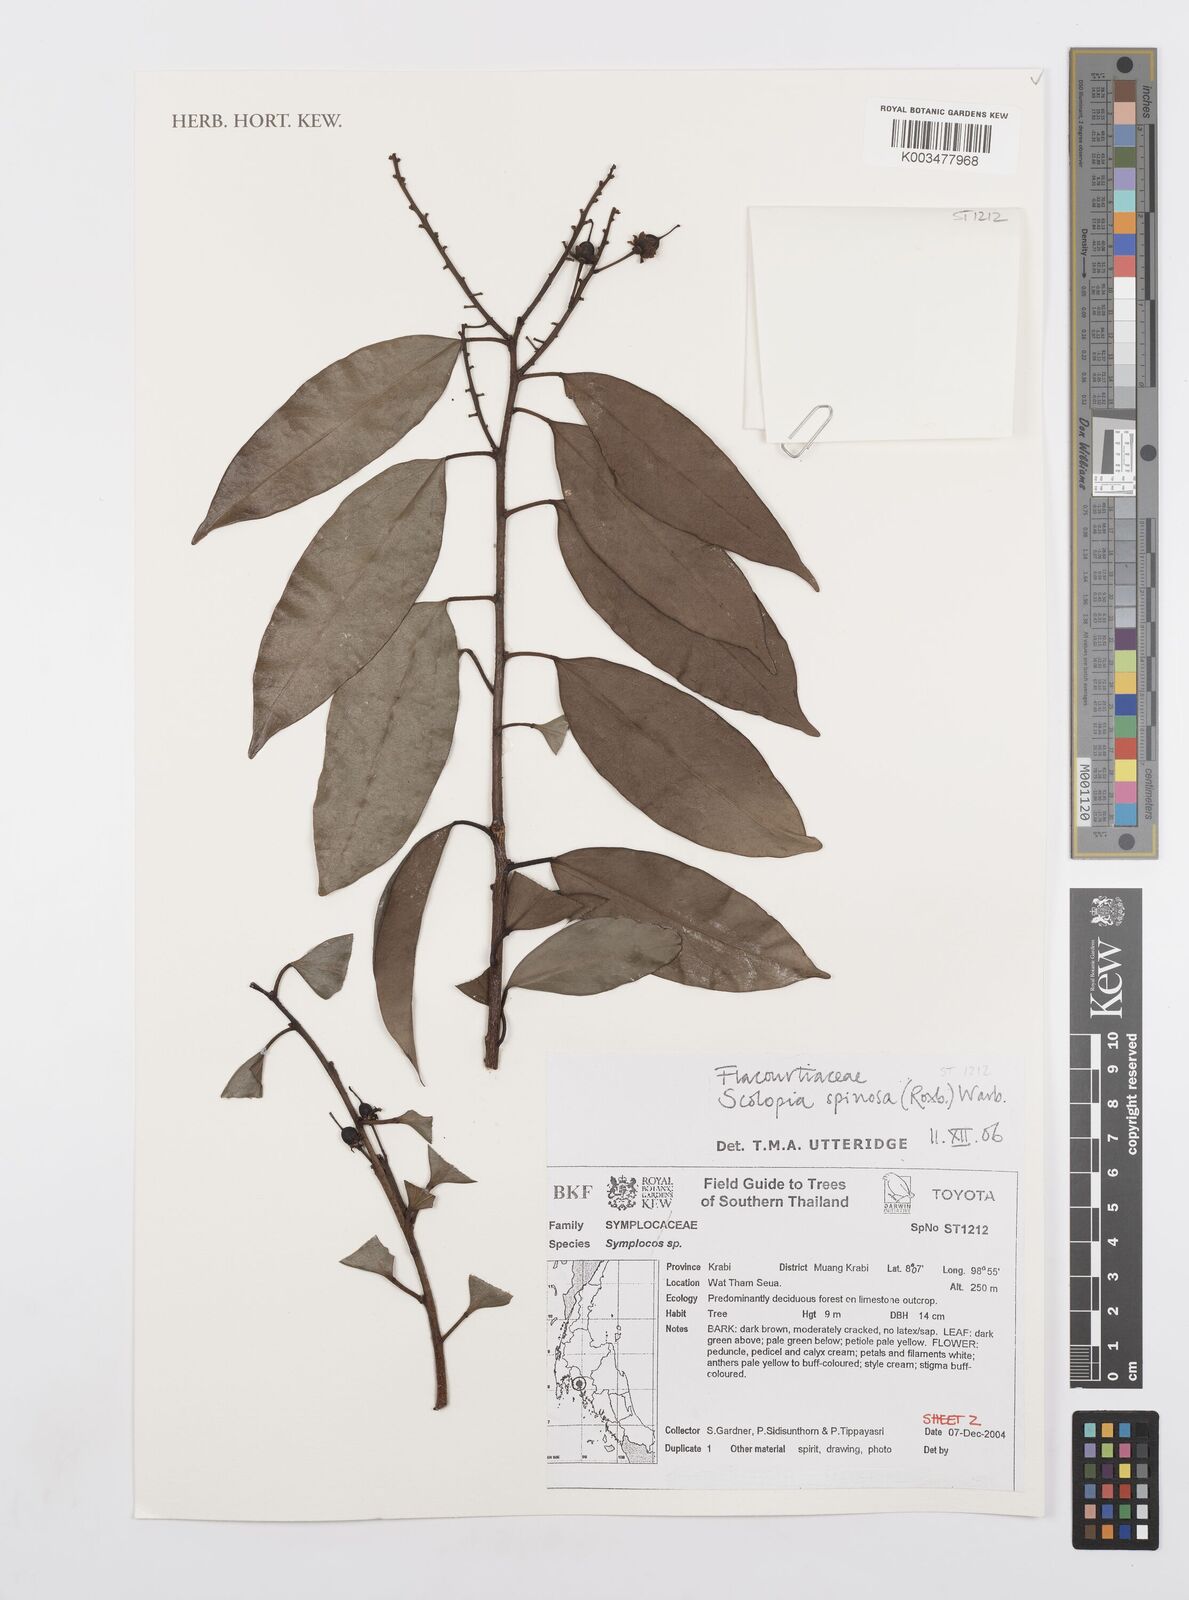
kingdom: Plantae
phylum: Tracheophyta
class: Magnoliopsida
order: Malpighiales
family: Salicaceae
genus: Scolopia
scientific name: Scolopia spinescens
